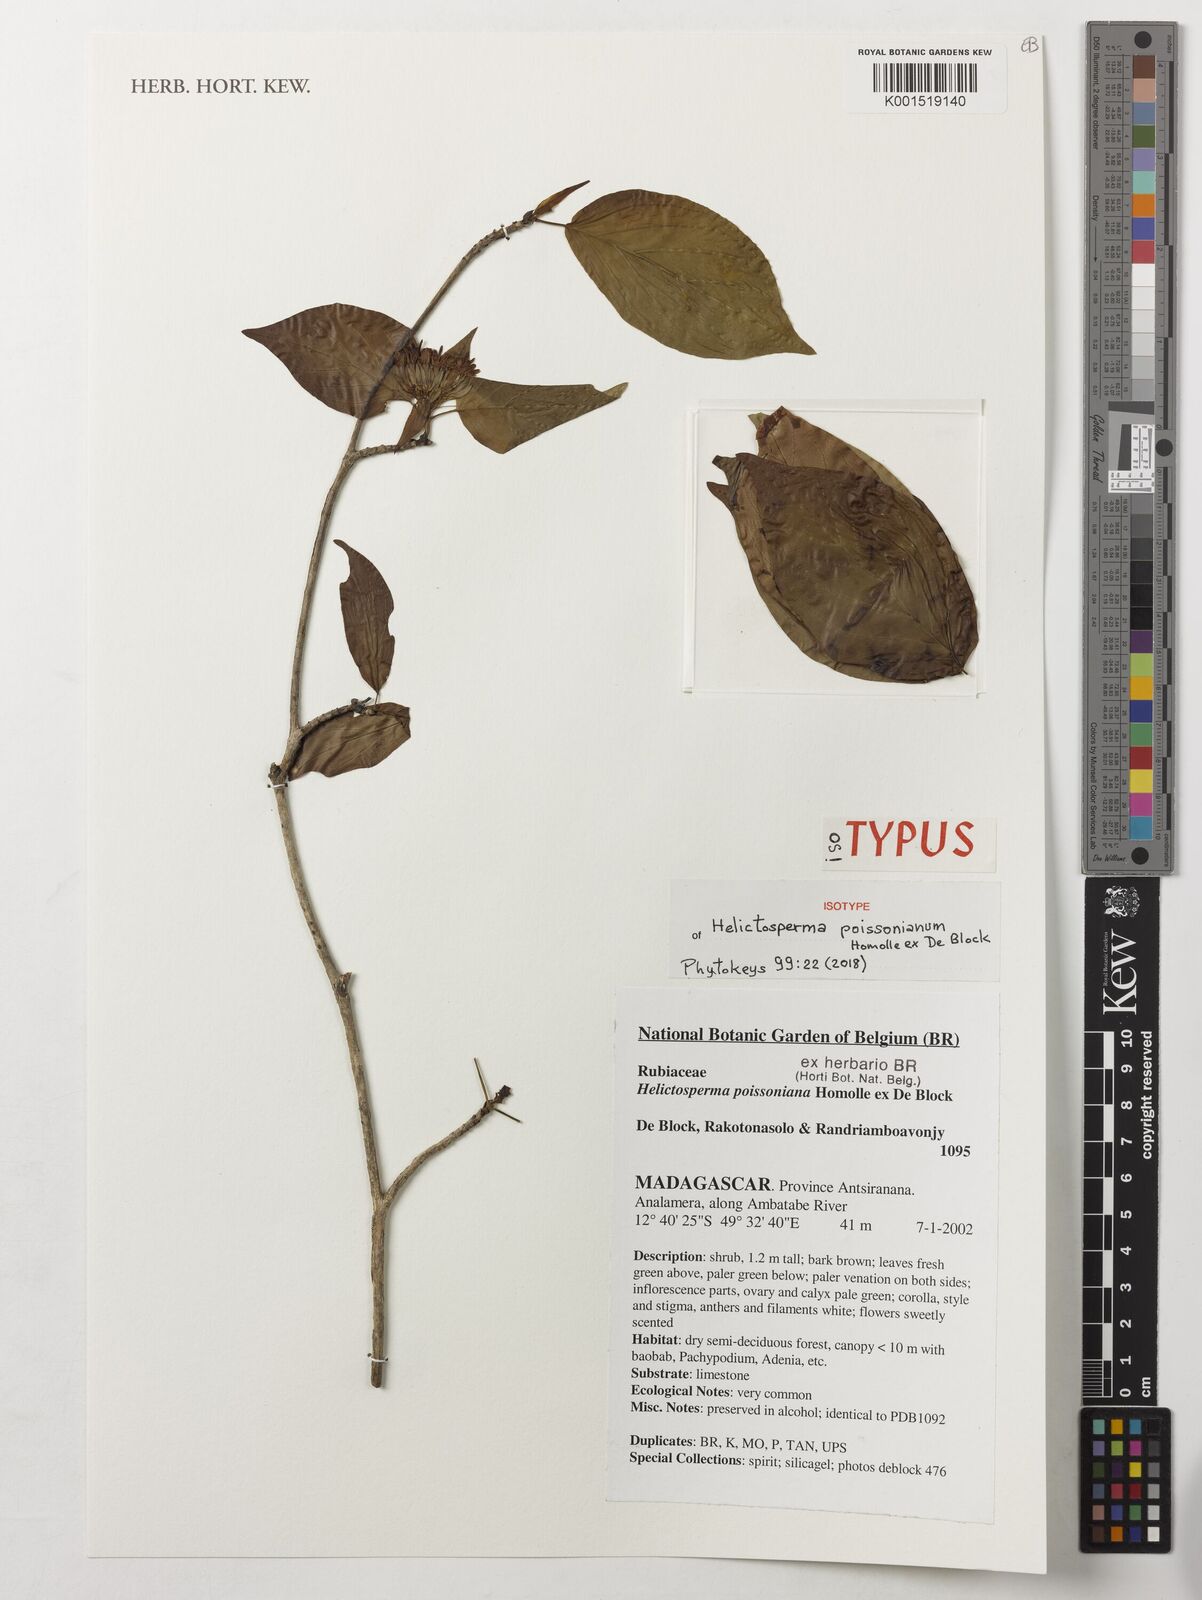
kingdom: Plantae
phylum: Tracheophyta
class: Magnoliopsida
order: Gentianales
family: Rubiaceae
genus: Helictosperma
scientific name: Helictosperma poissonianum
